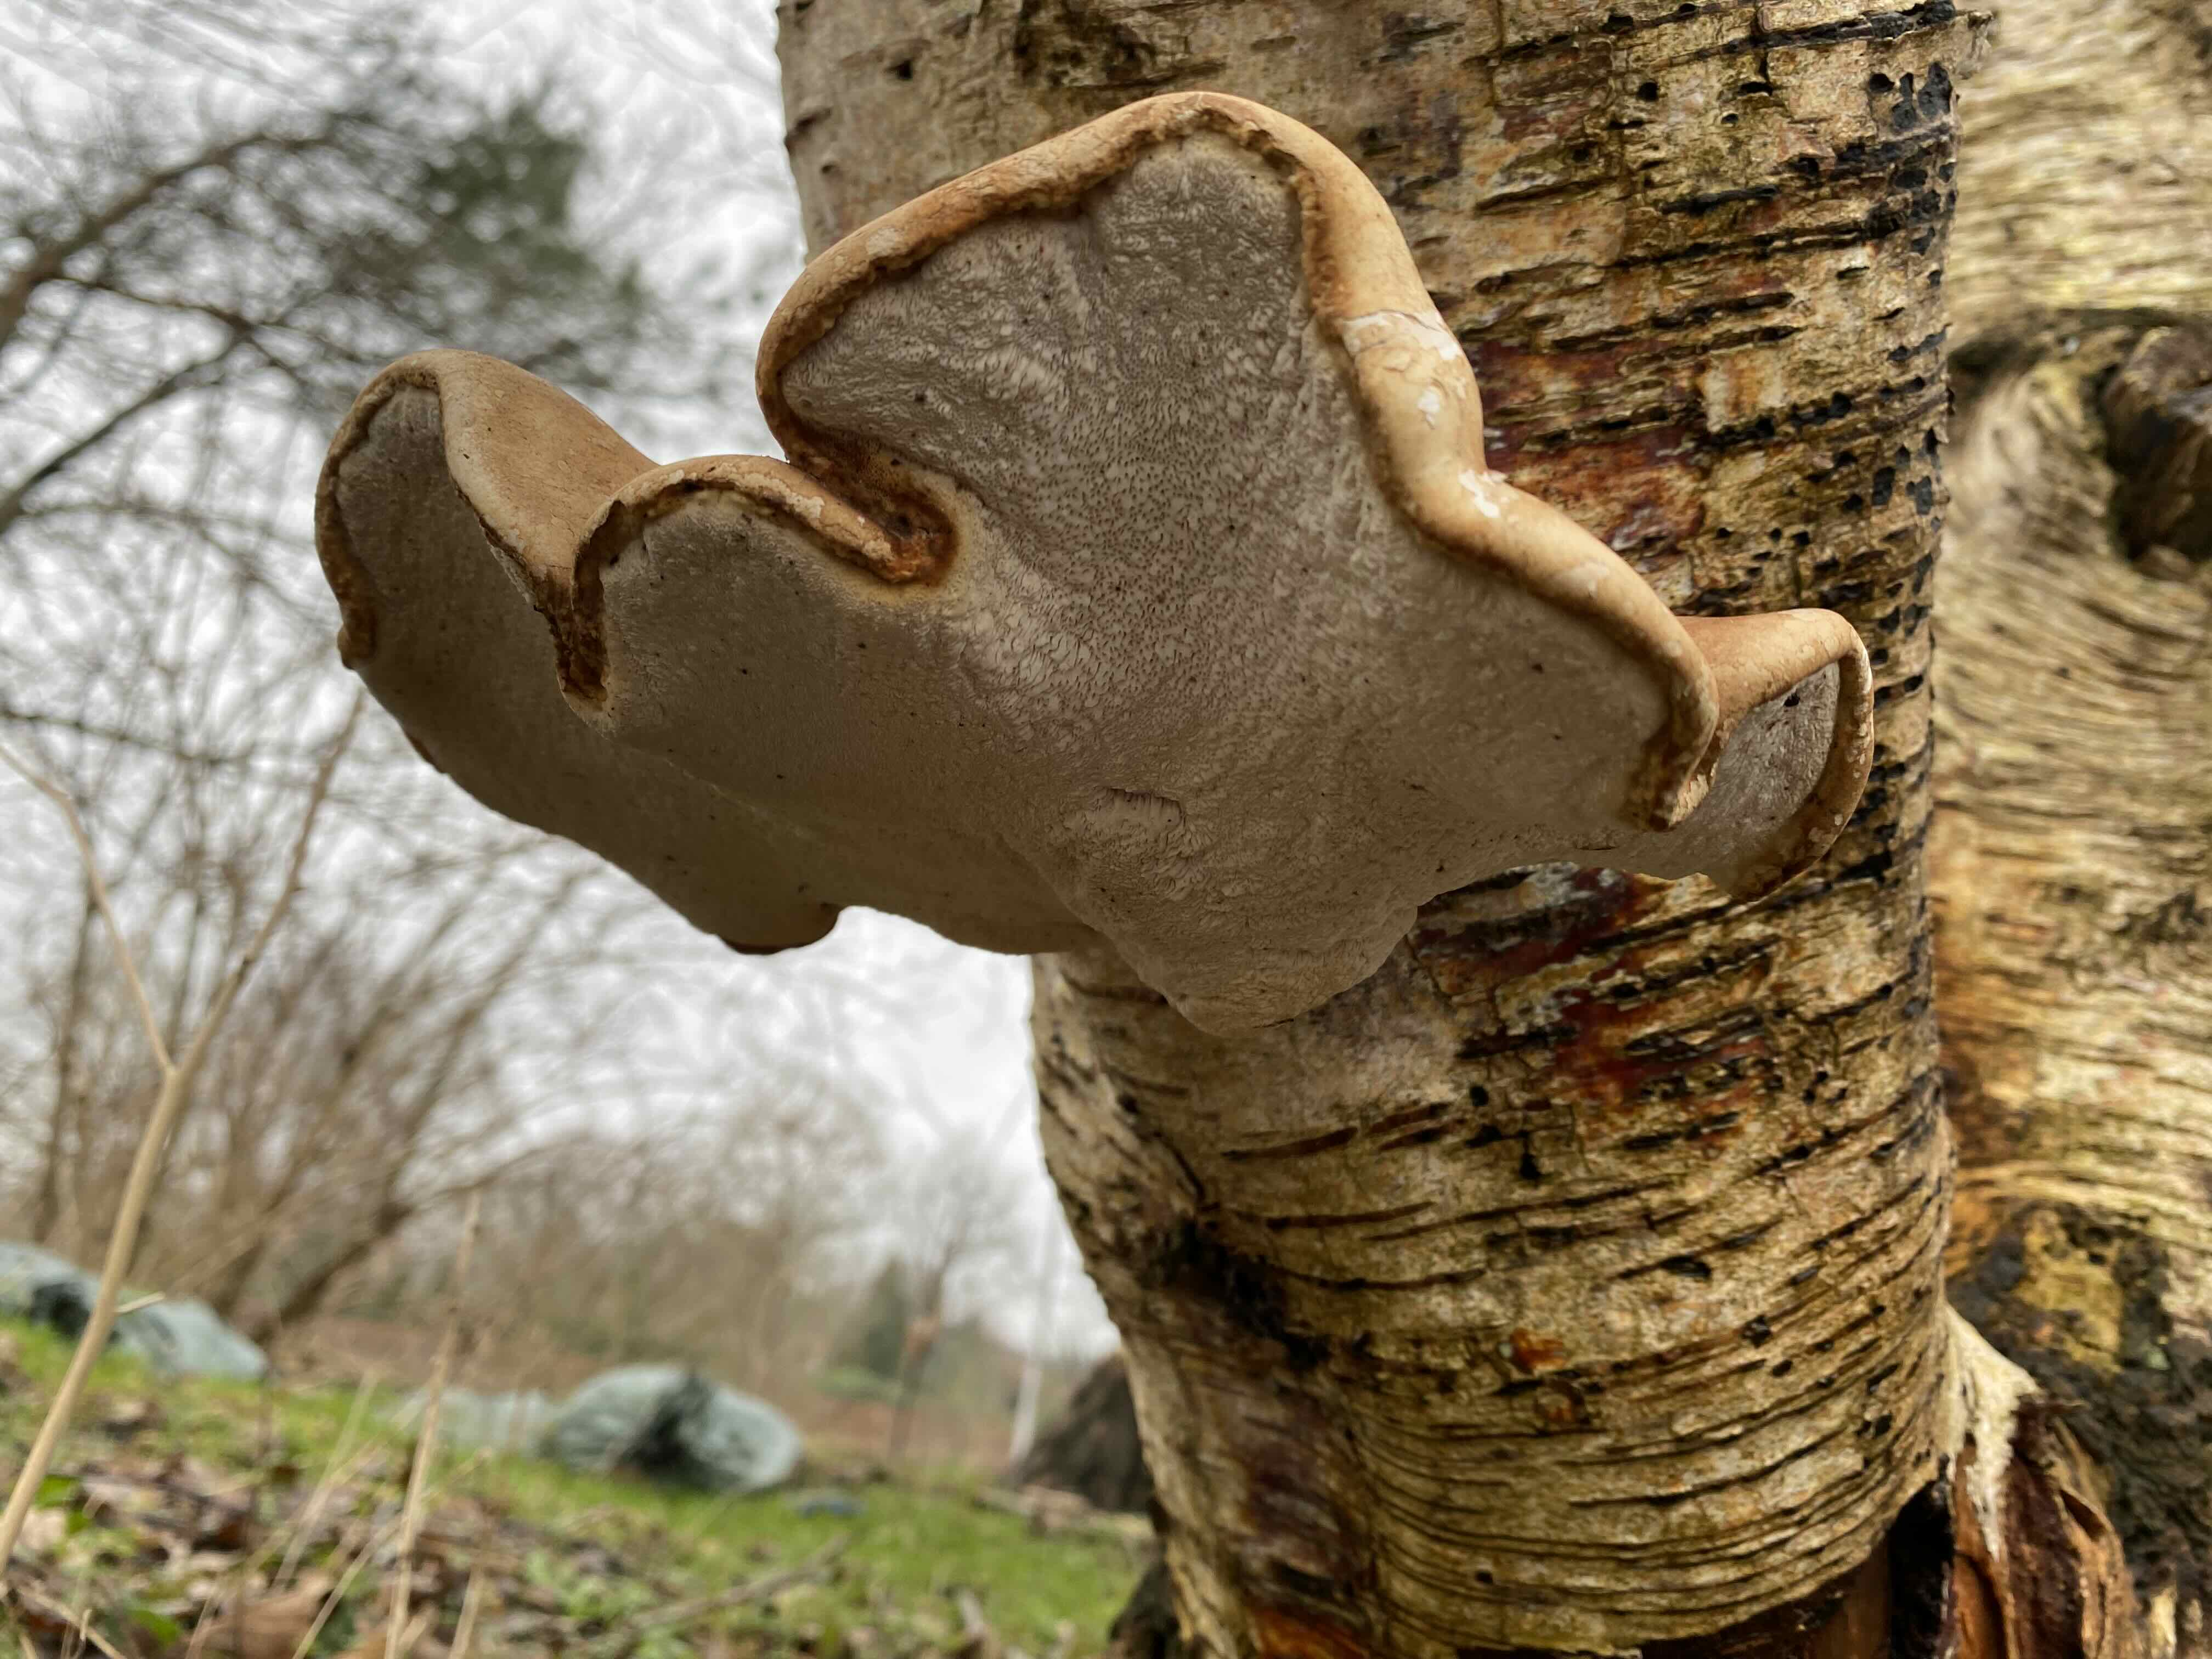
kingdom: Fungi
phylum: Basidiomycota
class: Agaricomycetes
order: Polyporales
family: Fomitopsidaceae
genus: Fomitopsis
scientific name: Fomitopsis betulina
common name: birkeporesvamp
